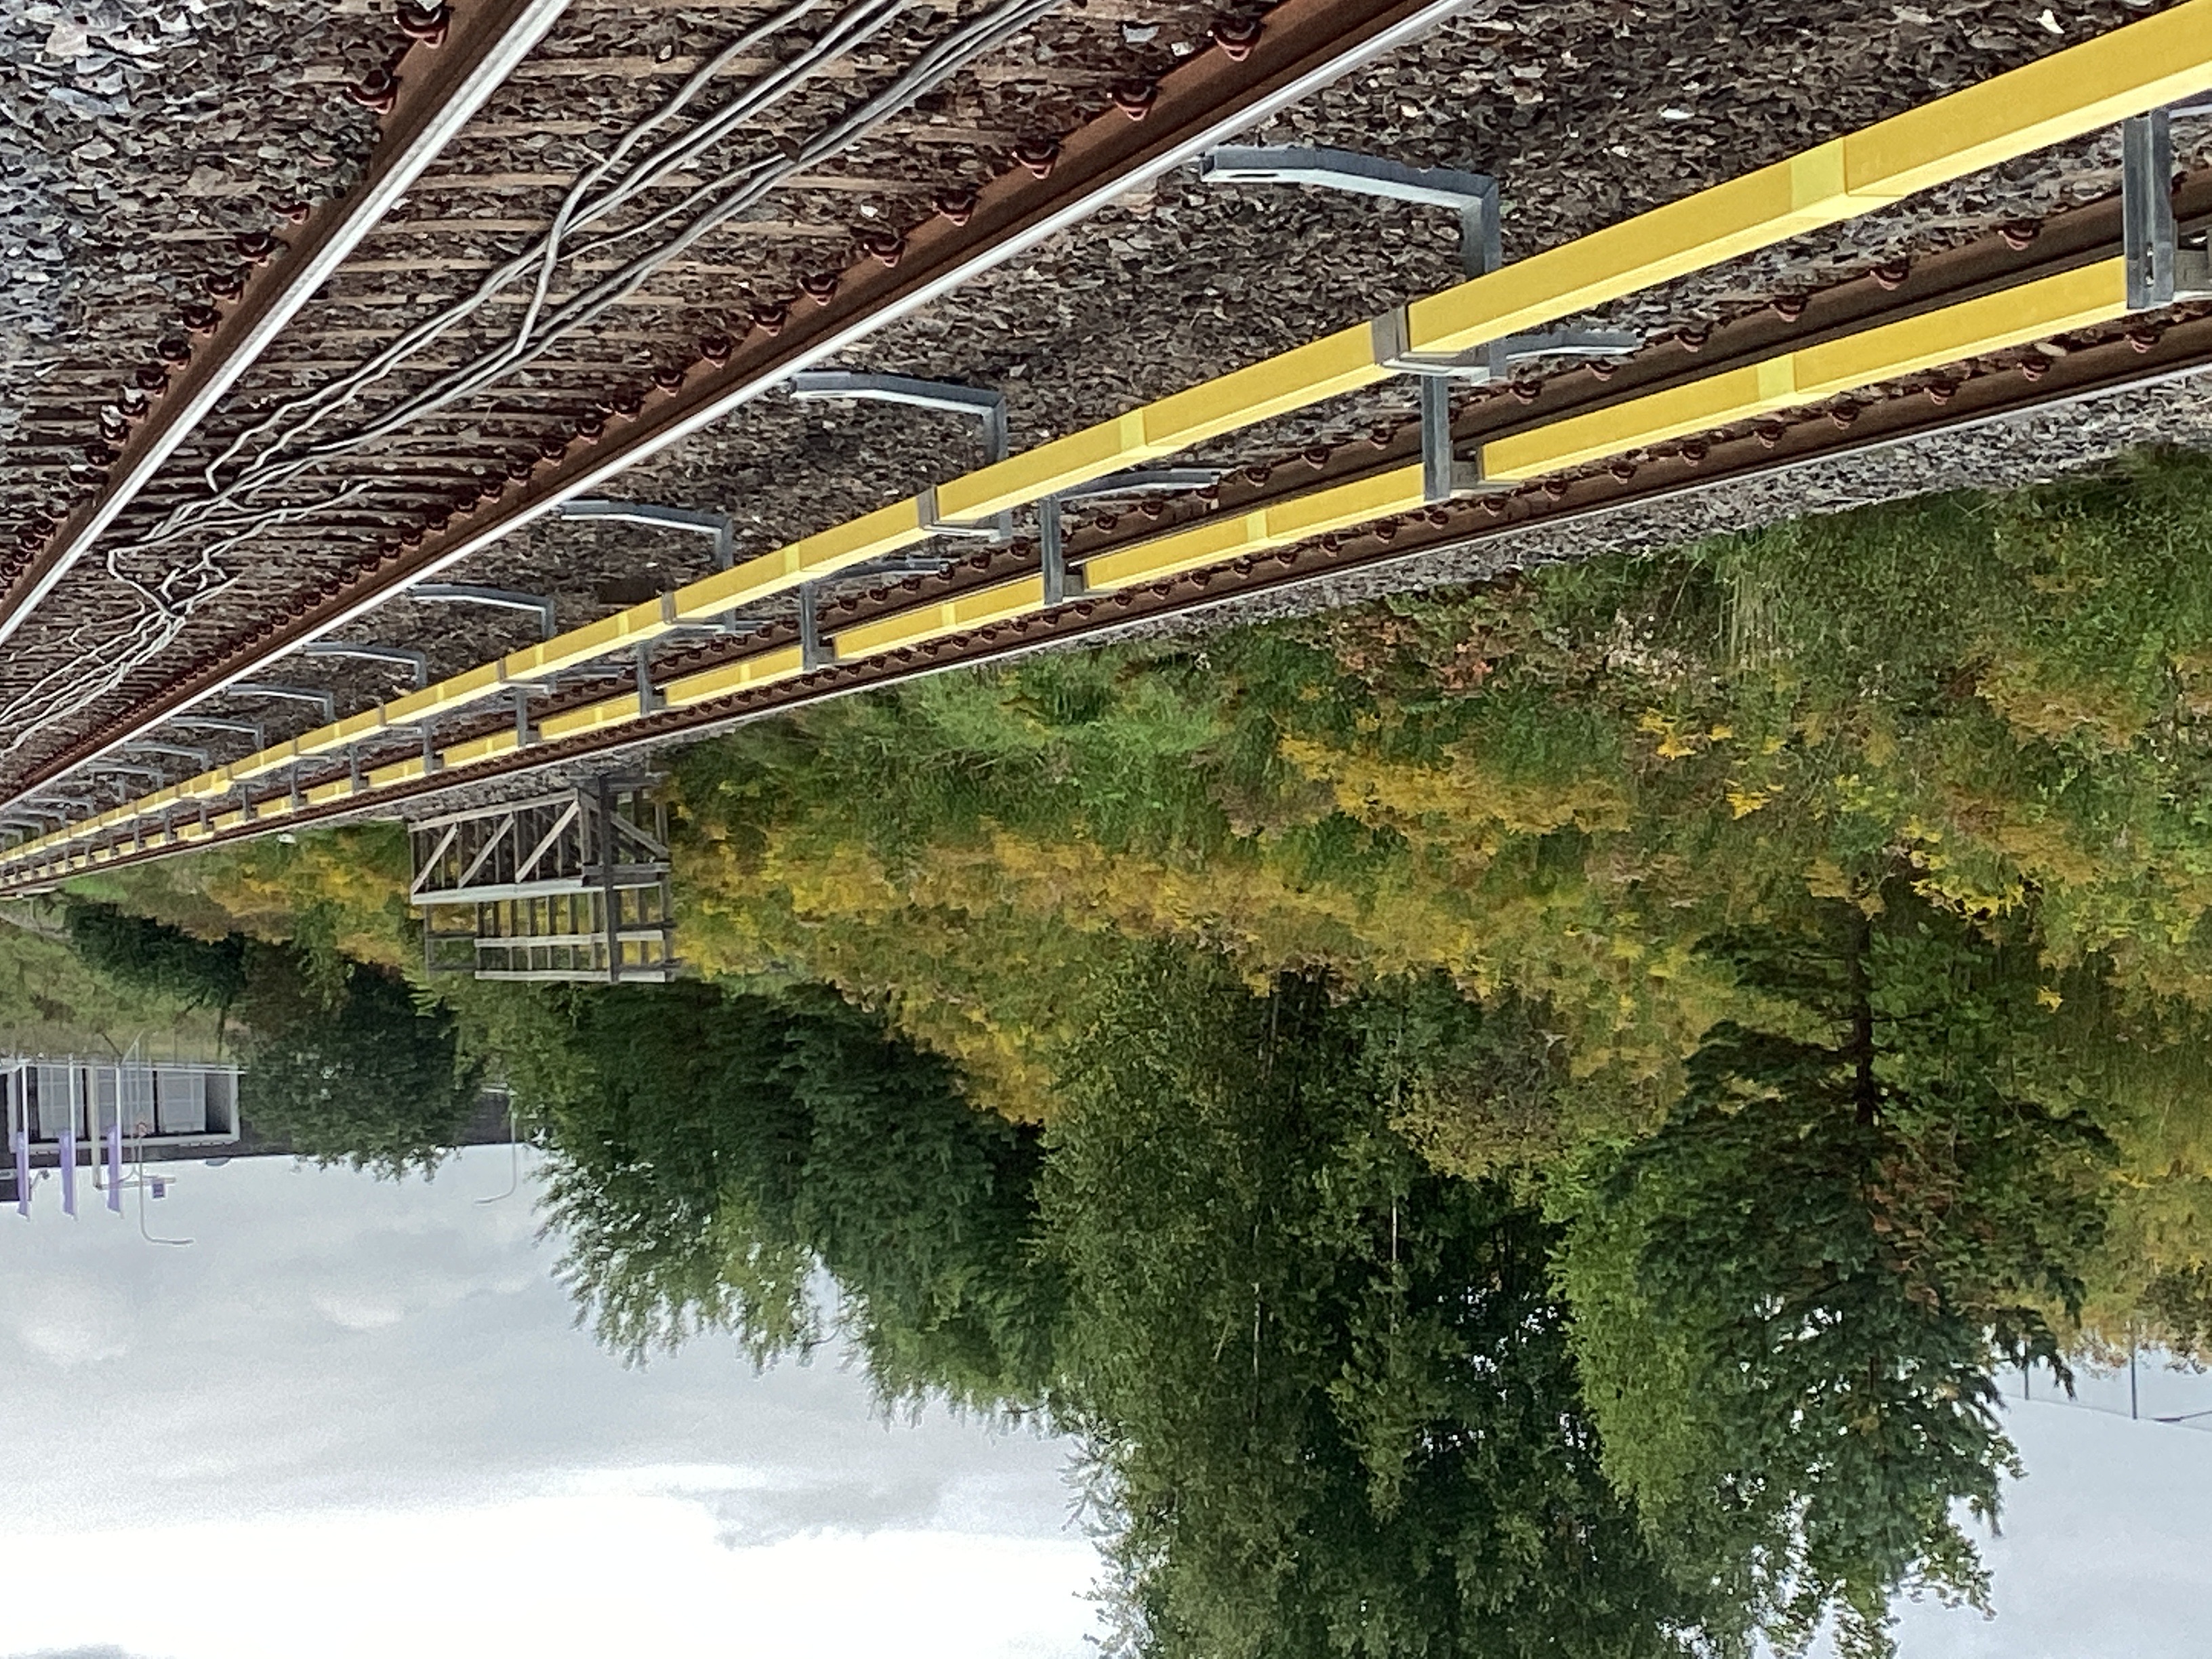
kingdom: Plantae
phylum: Tracheophyta
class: Magnoliopsida
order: Asterales
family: Asteraceae
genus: Solidago
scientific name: Solidago canadensis
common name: kanadagullris
